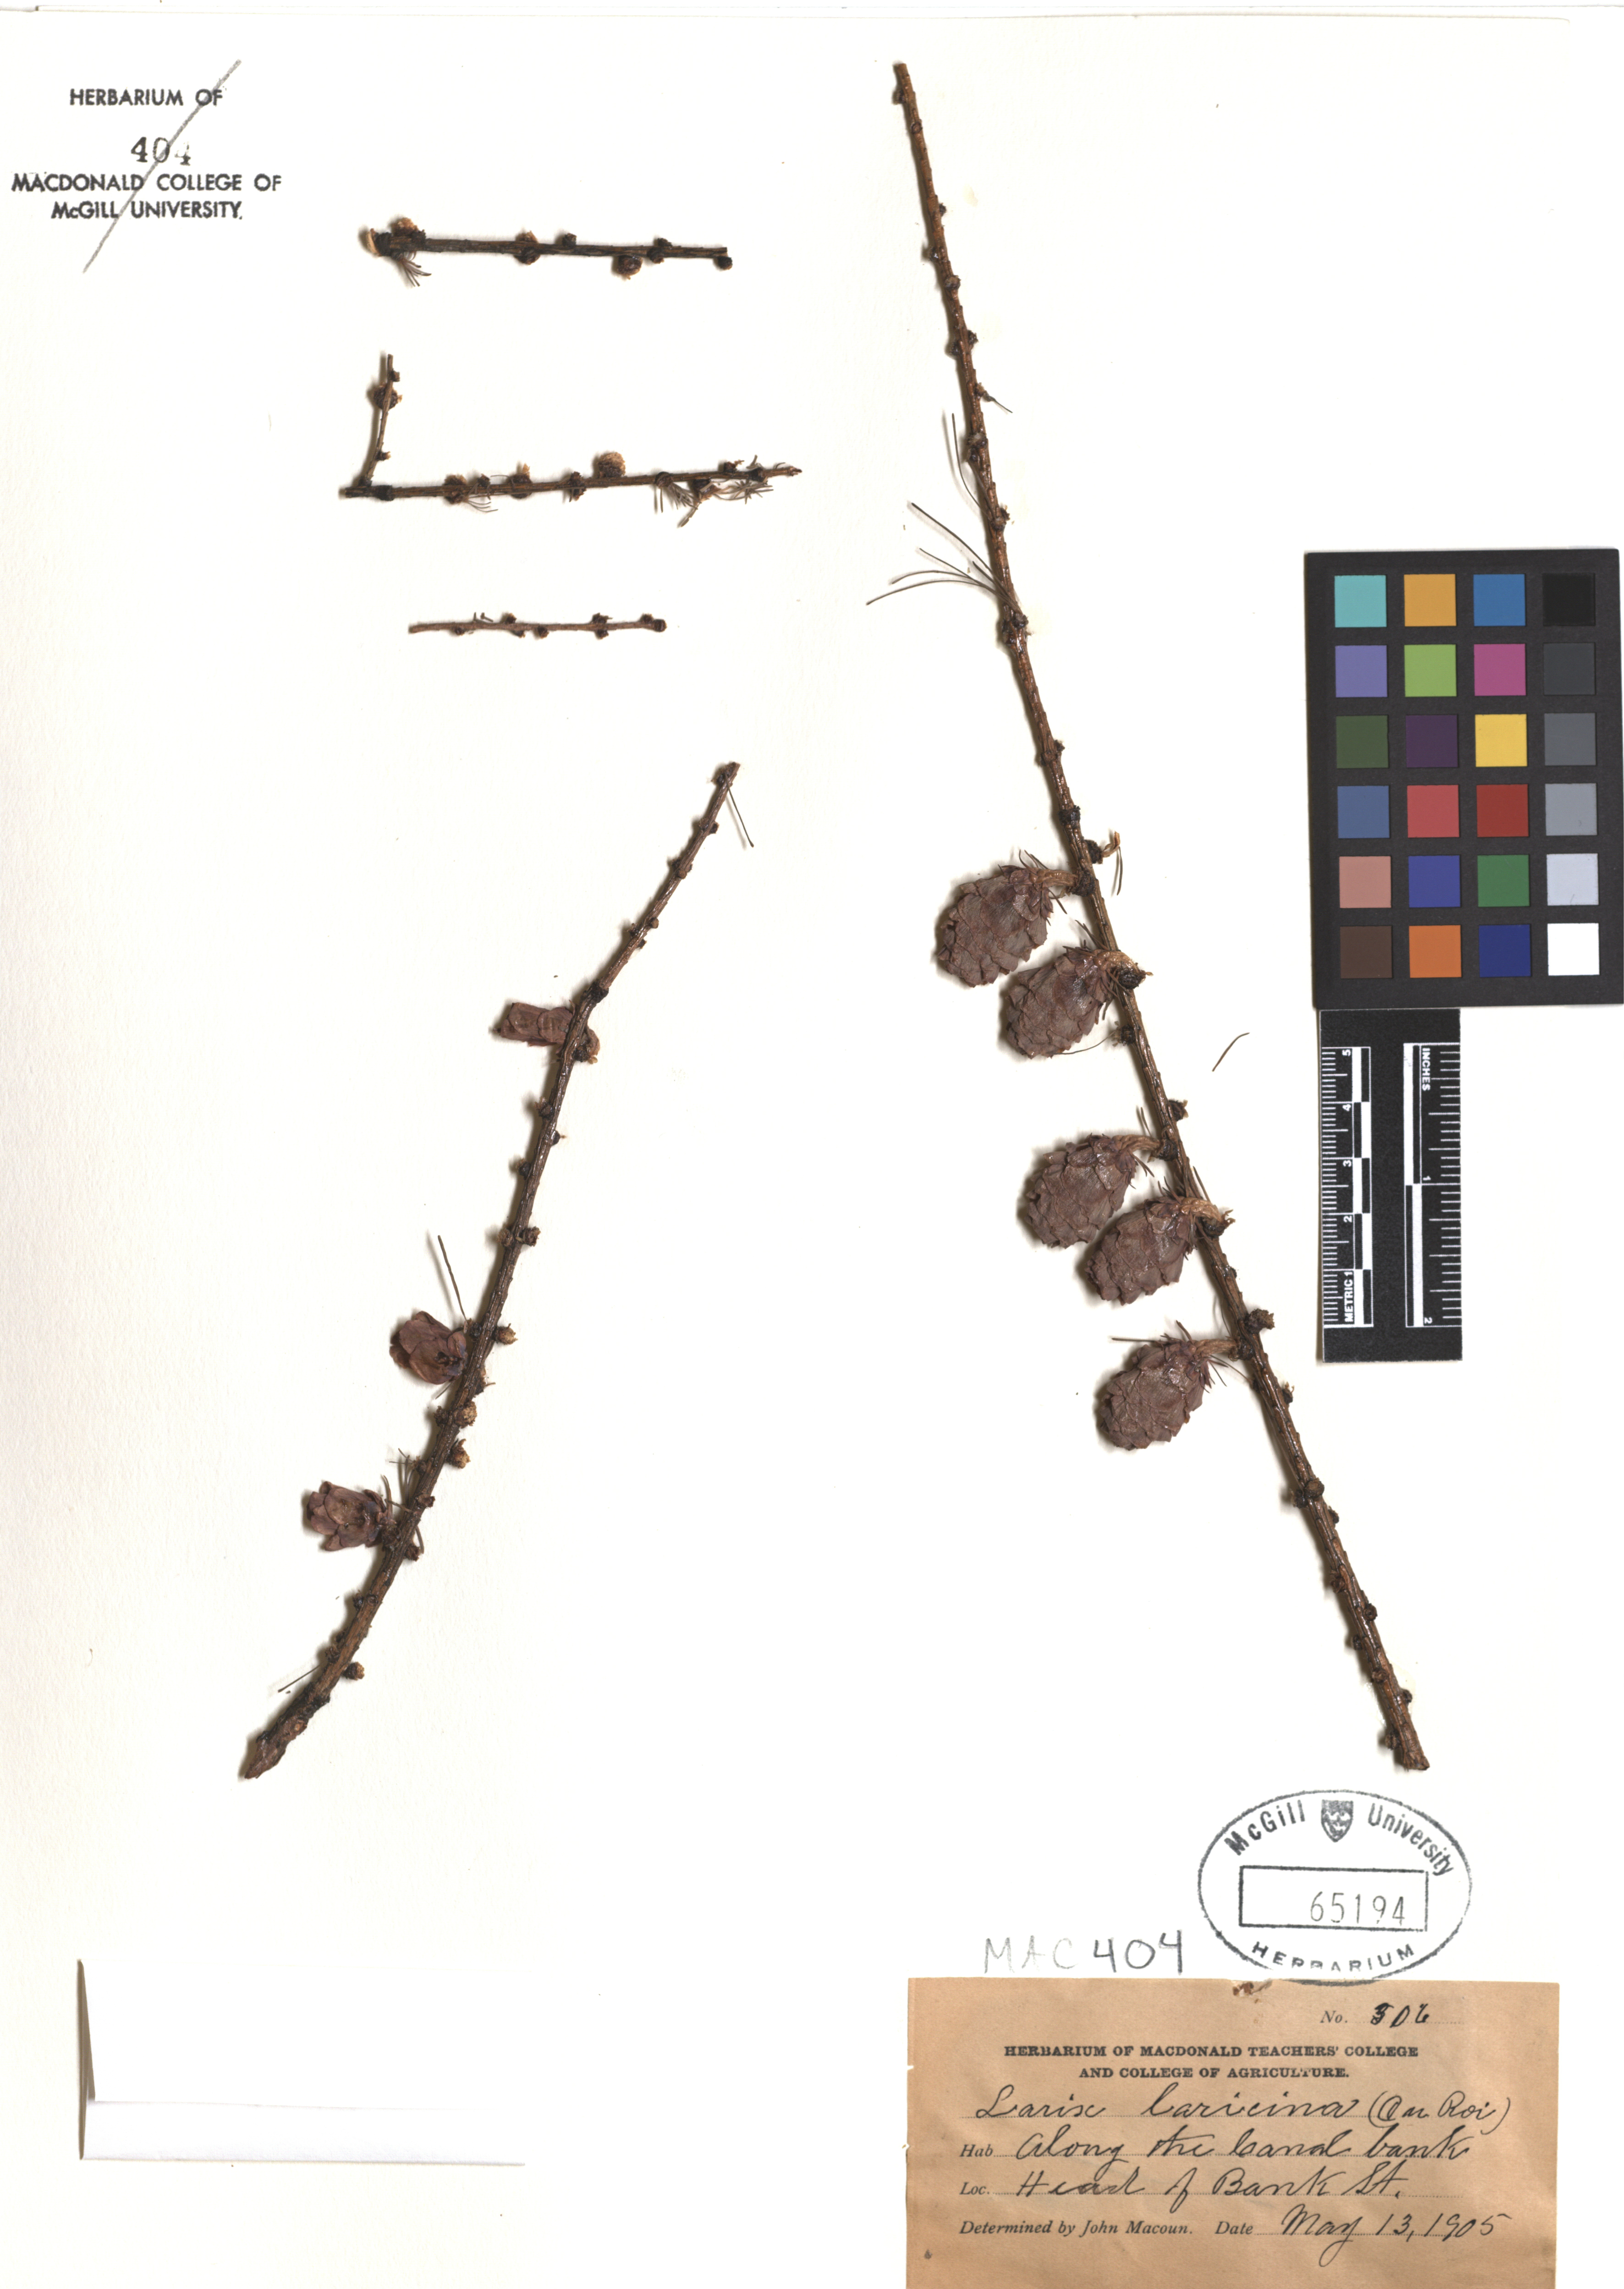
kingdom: Plantae
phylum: Tracheophyta
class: Pinopsida
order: Pinales
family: Pinaceae
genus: Larix
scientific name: Larix laricina
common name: American larch
